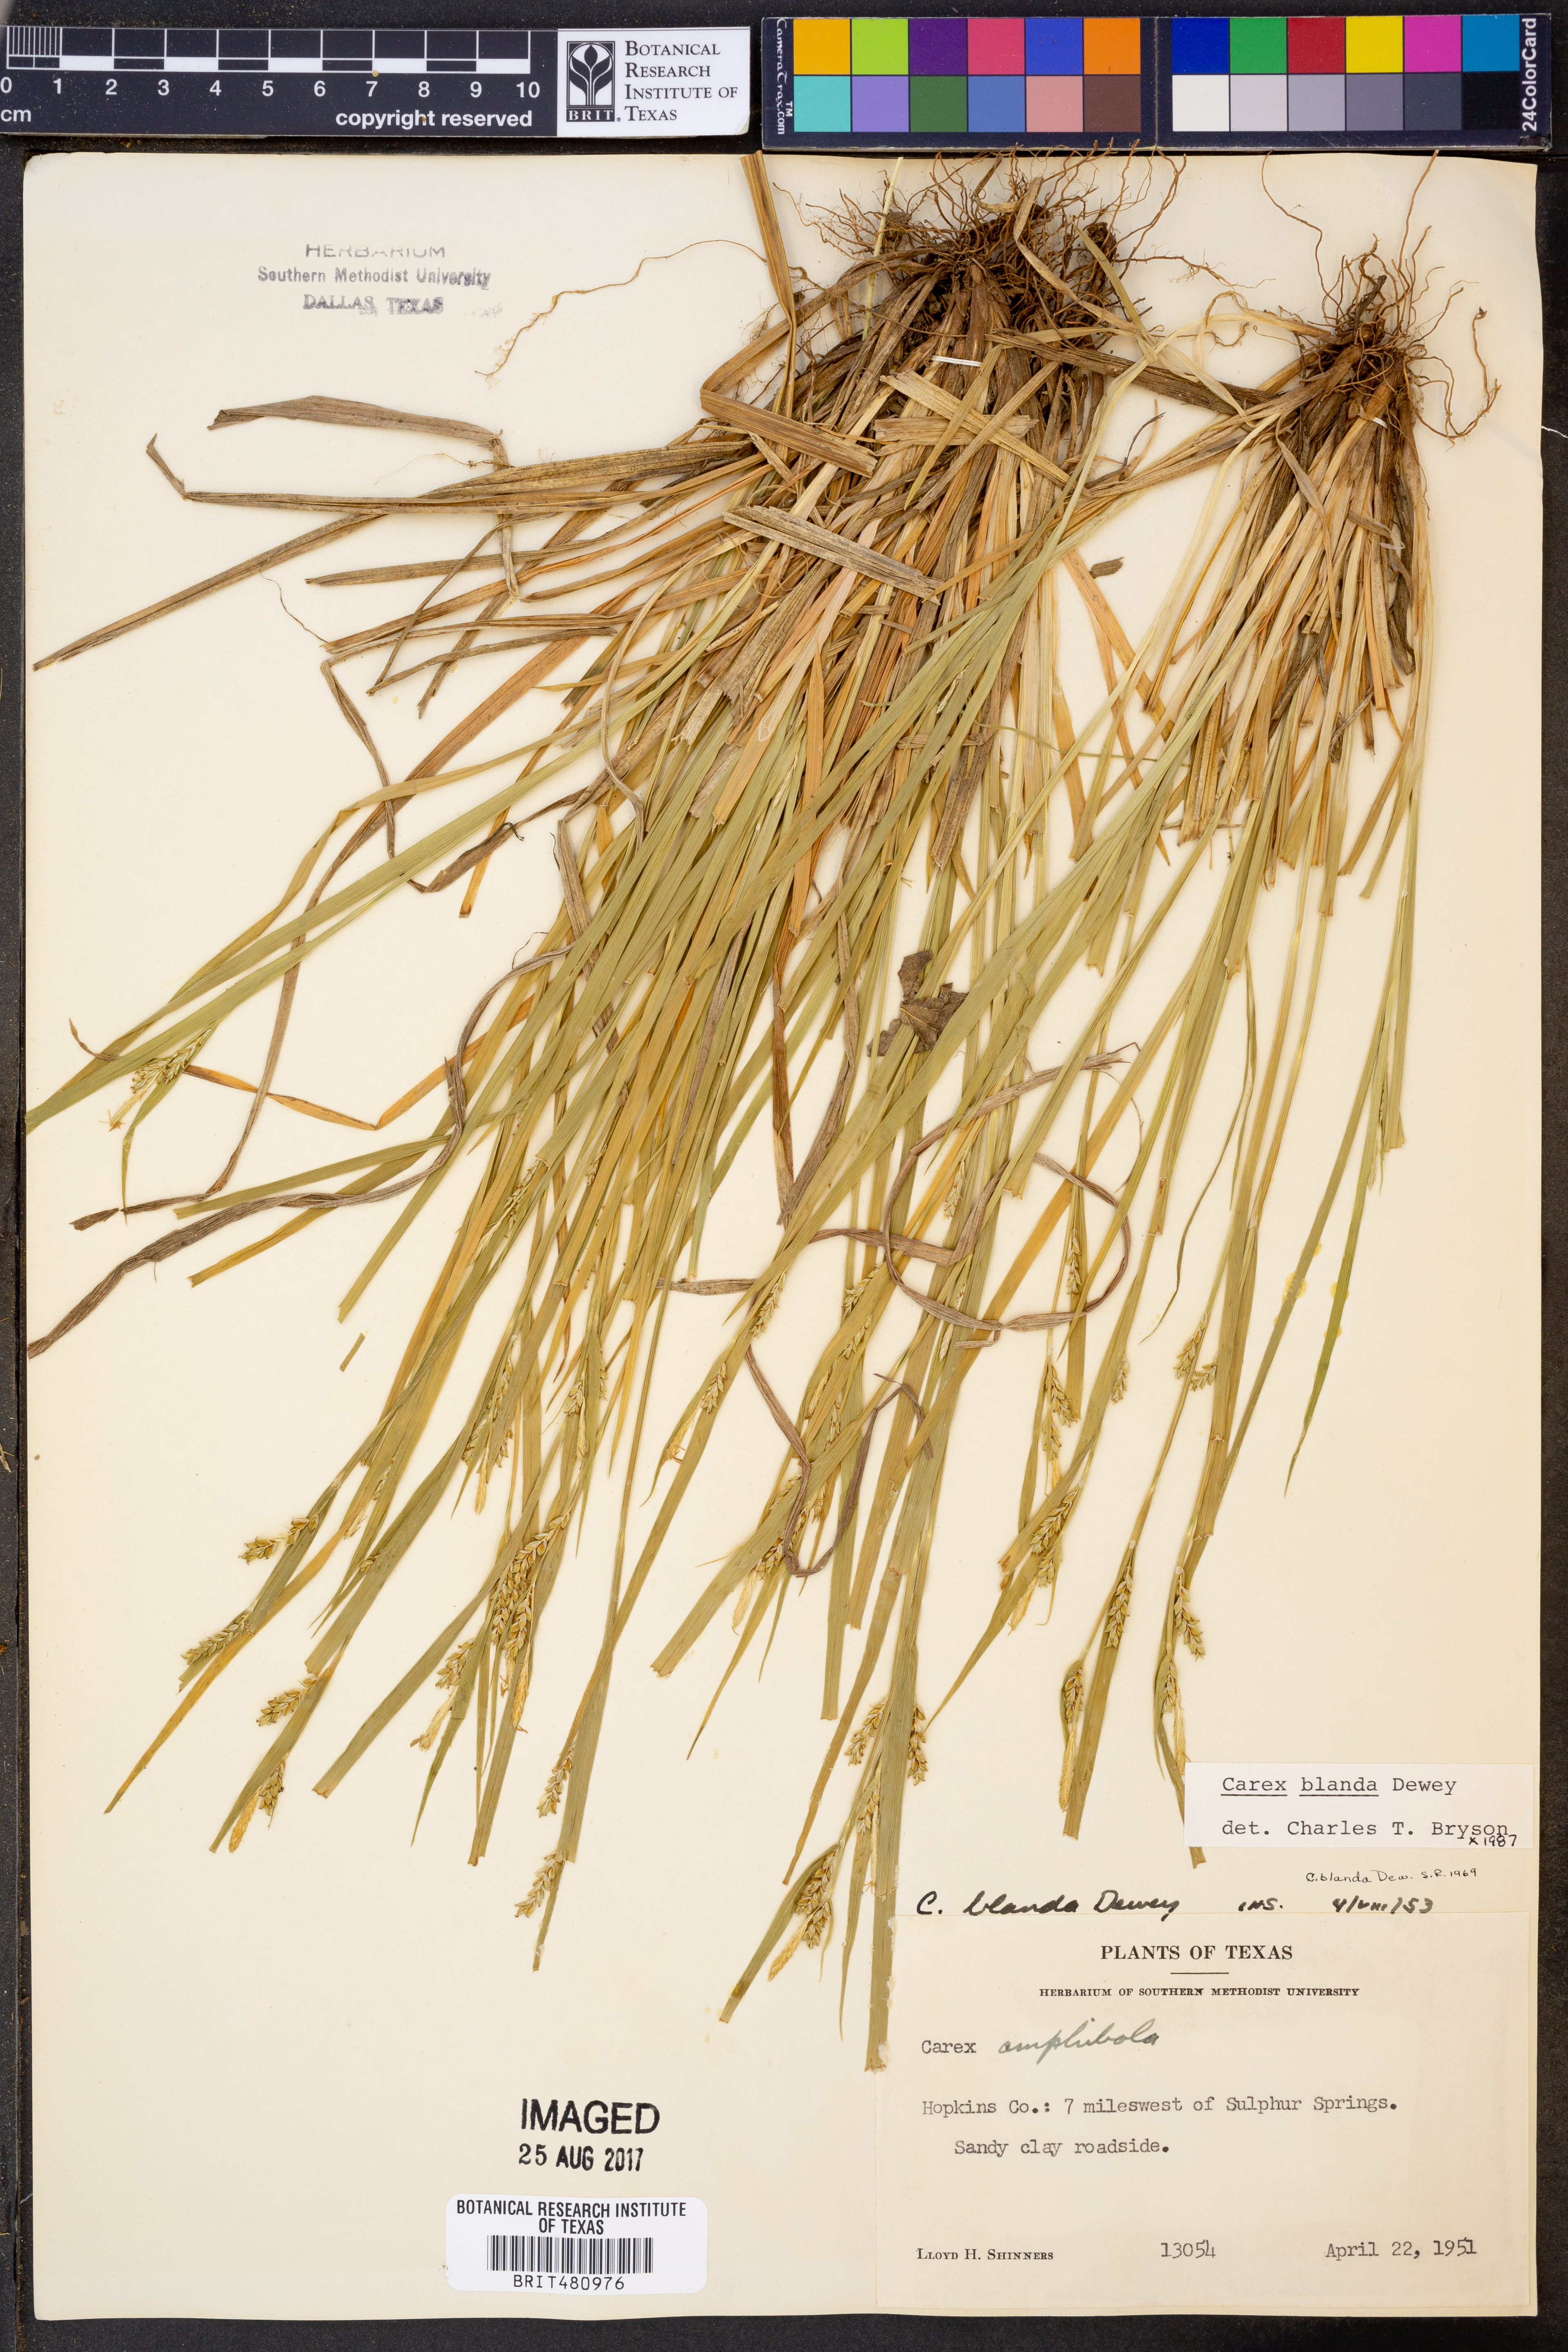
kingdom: Plantae
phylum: Tracheophyta
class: Liliopsida
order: Poales
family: Cyperaceae
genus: Carex
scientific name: Carex blanda
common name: Bland sedge
